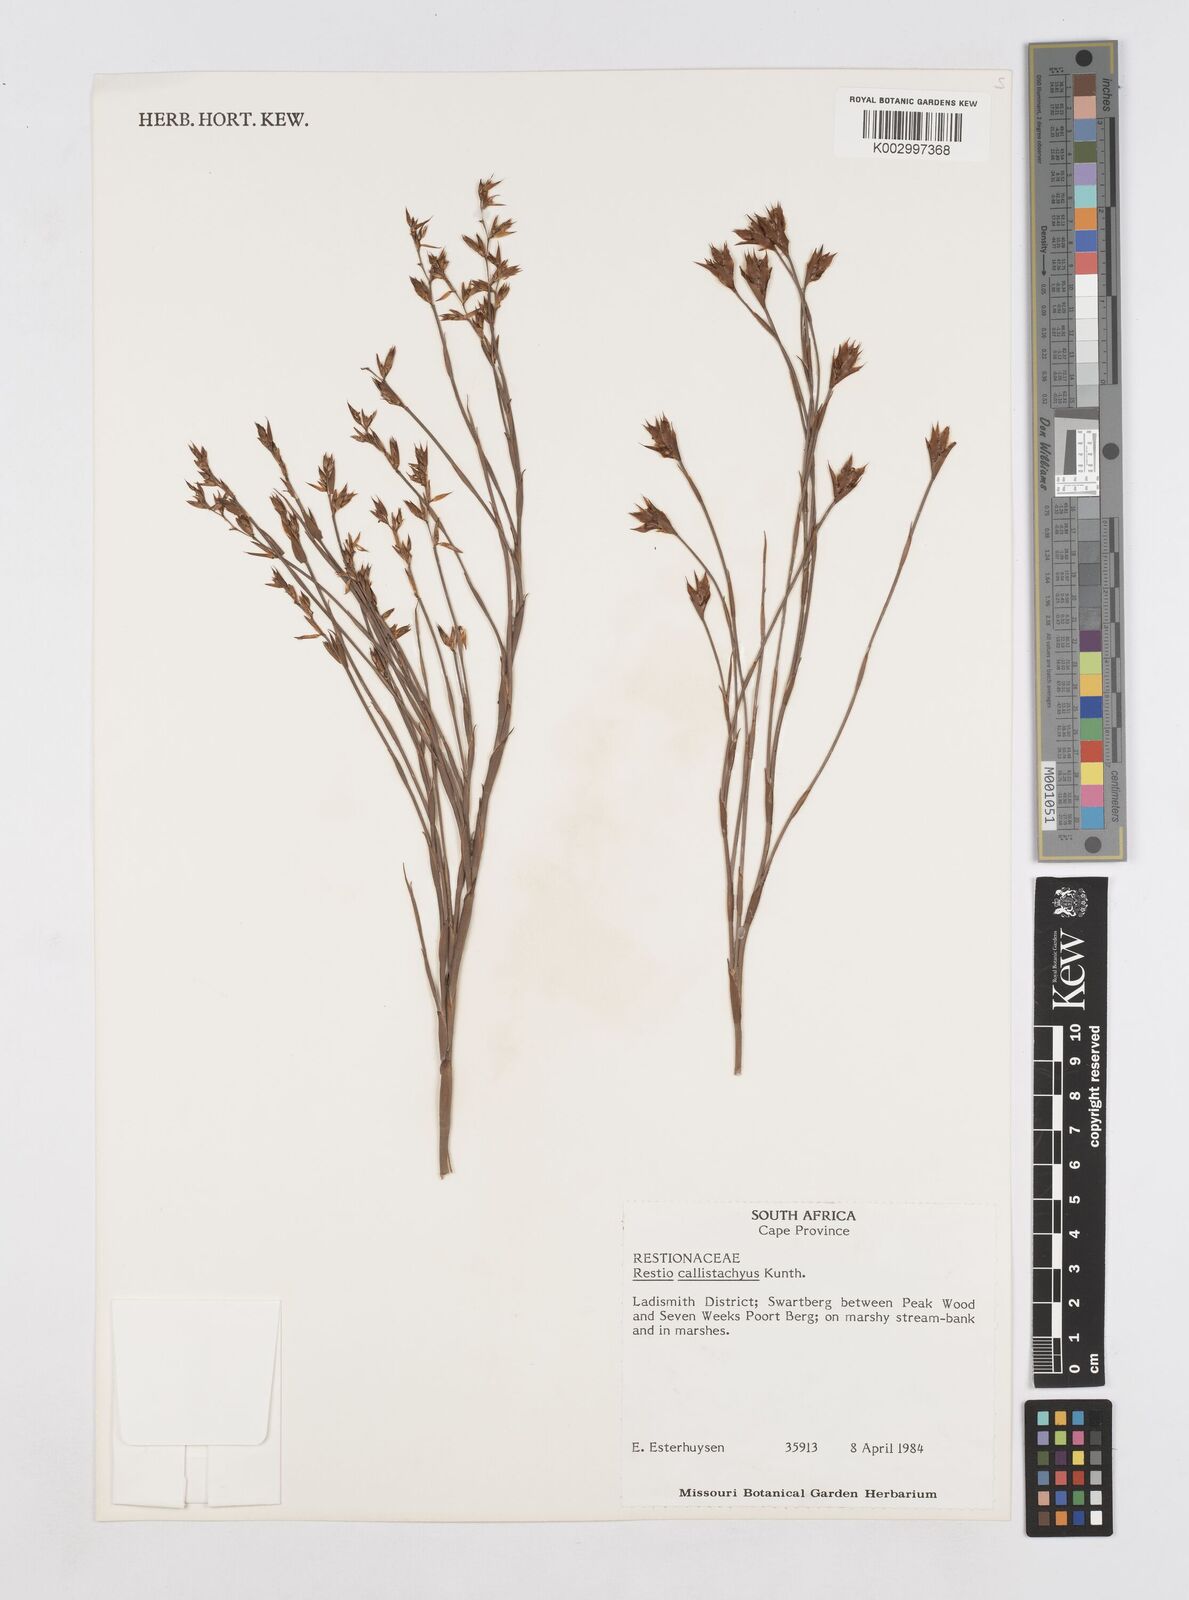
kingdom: Plantae
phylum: Tracheophyta
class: Liliopsida
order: Poales
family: Restionaceae
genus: Platycaulos
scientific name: Platycaulos callistachyus
